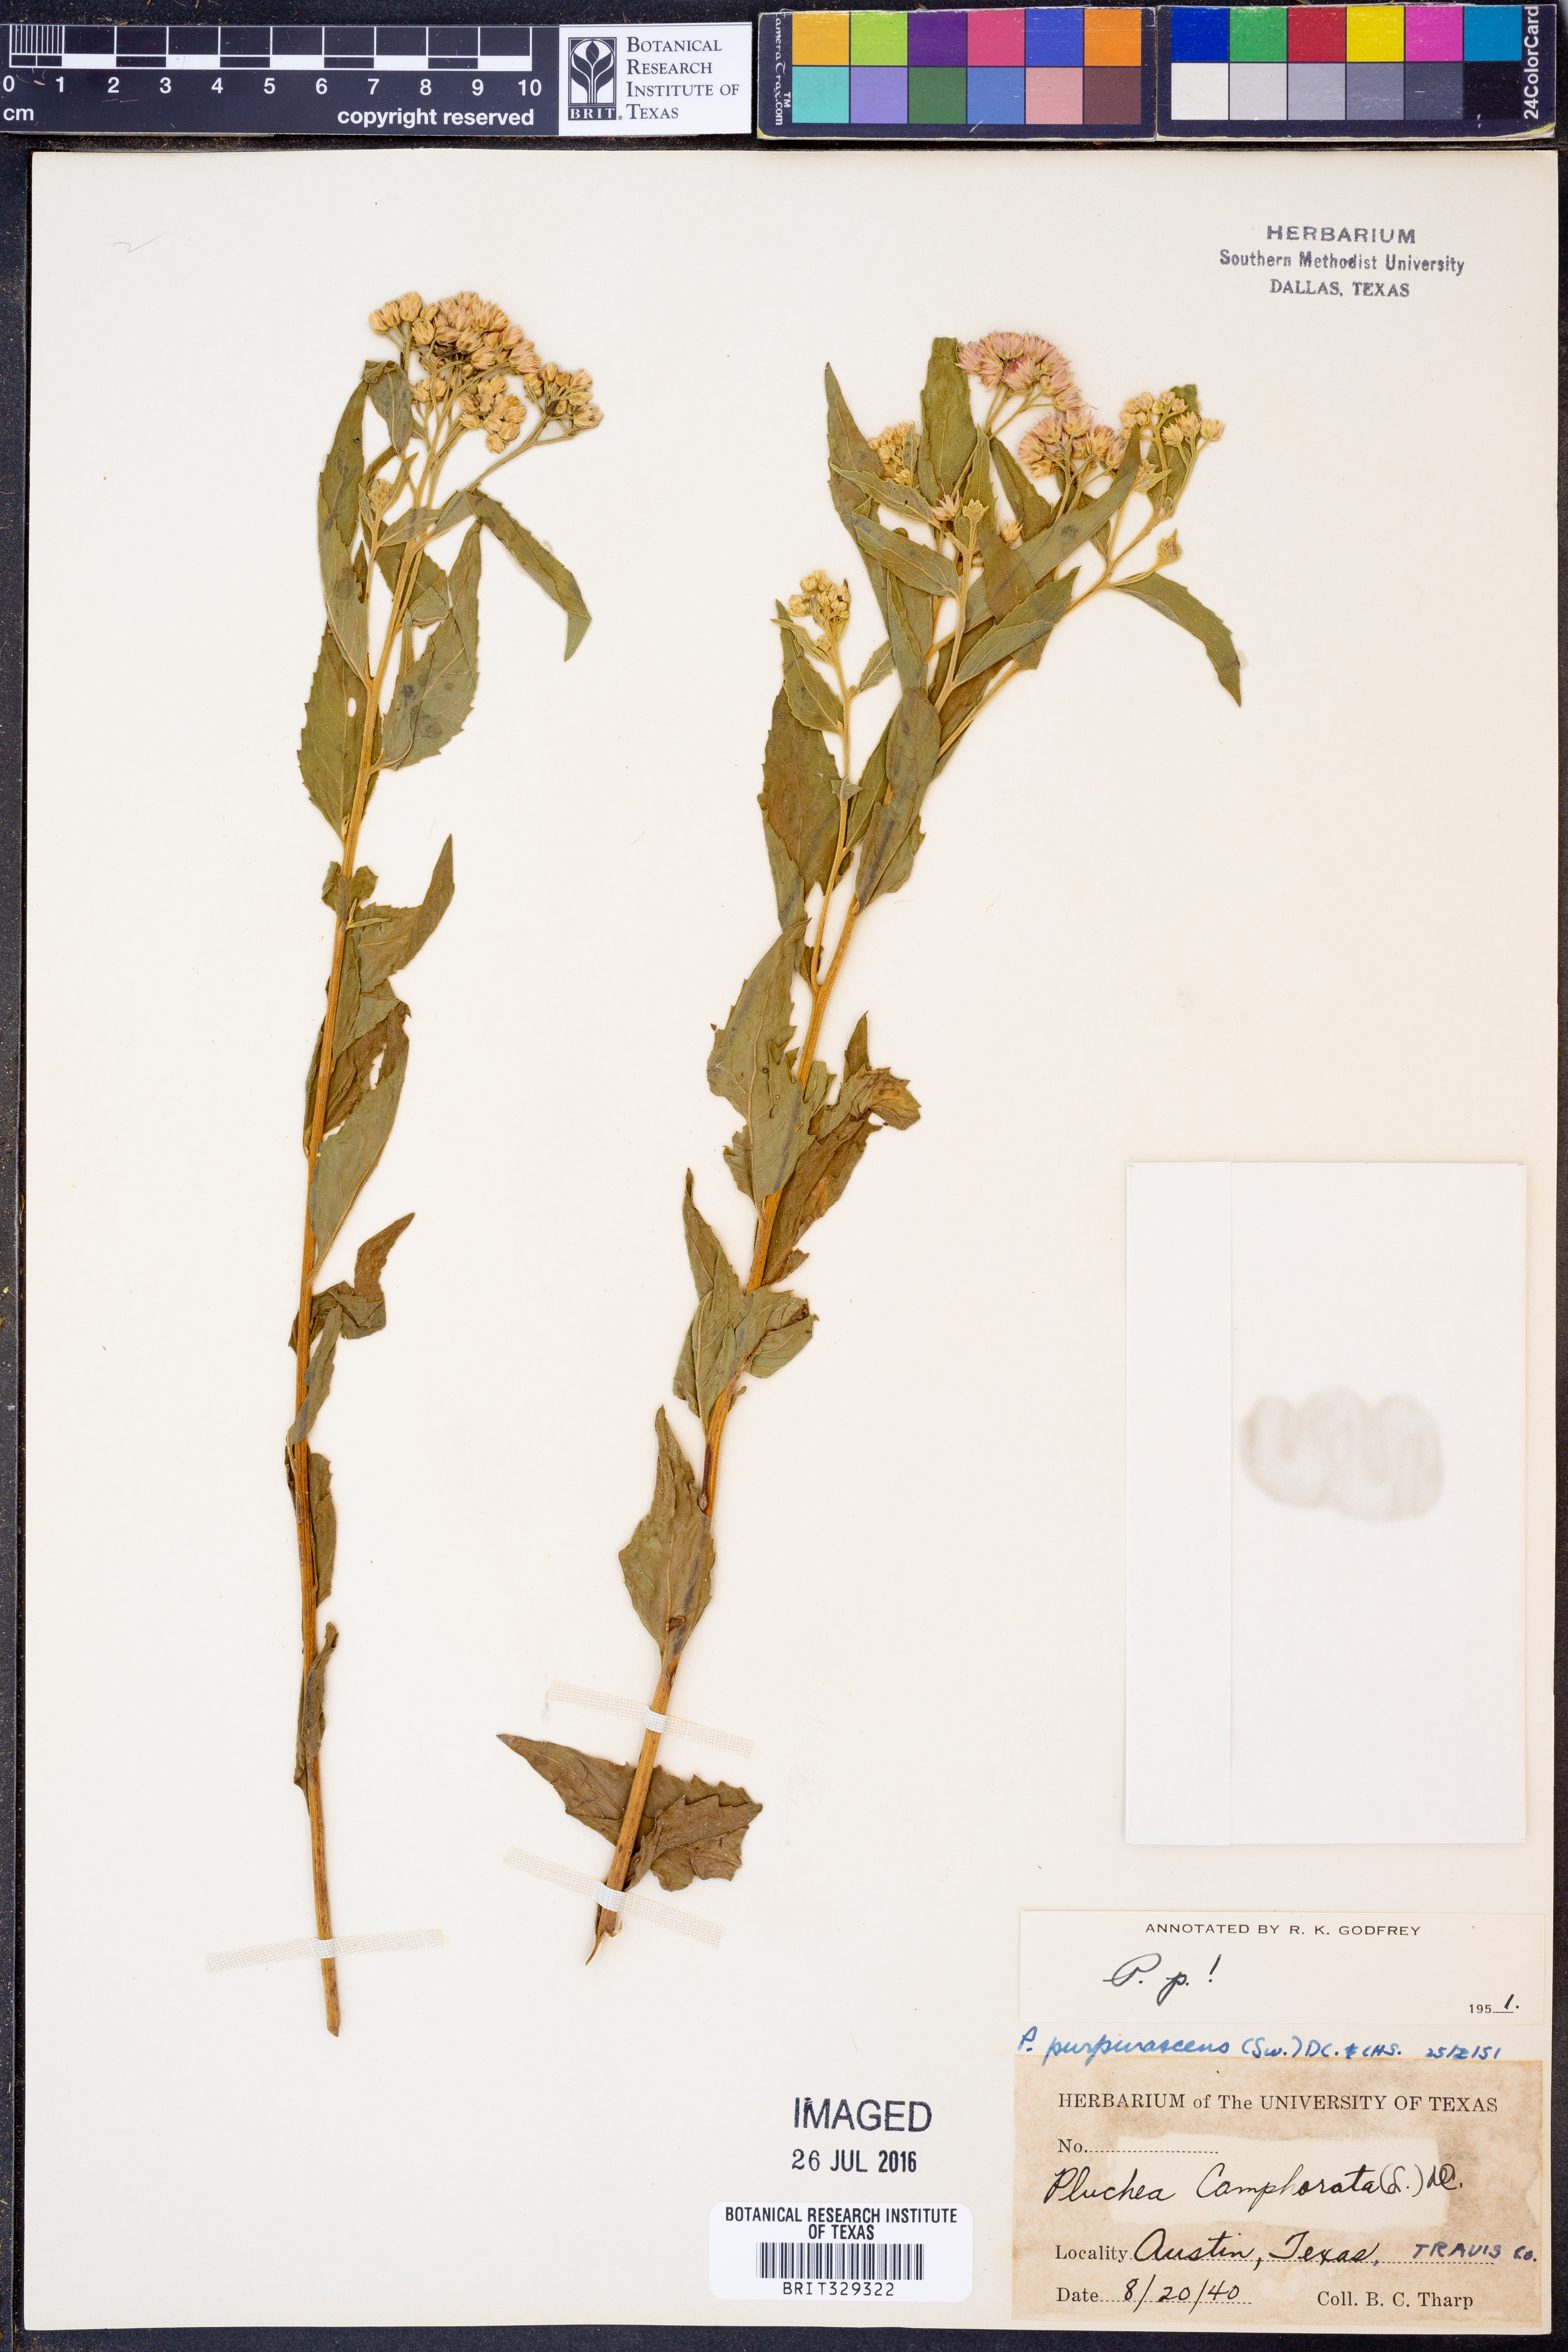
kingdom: Plantae
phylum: Tracheophyta
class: Magnoliopsida
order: Asterales
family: Asteraceae
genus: Pluchea
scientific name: Pluchea odorata
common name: Saltmarsh fleabane
